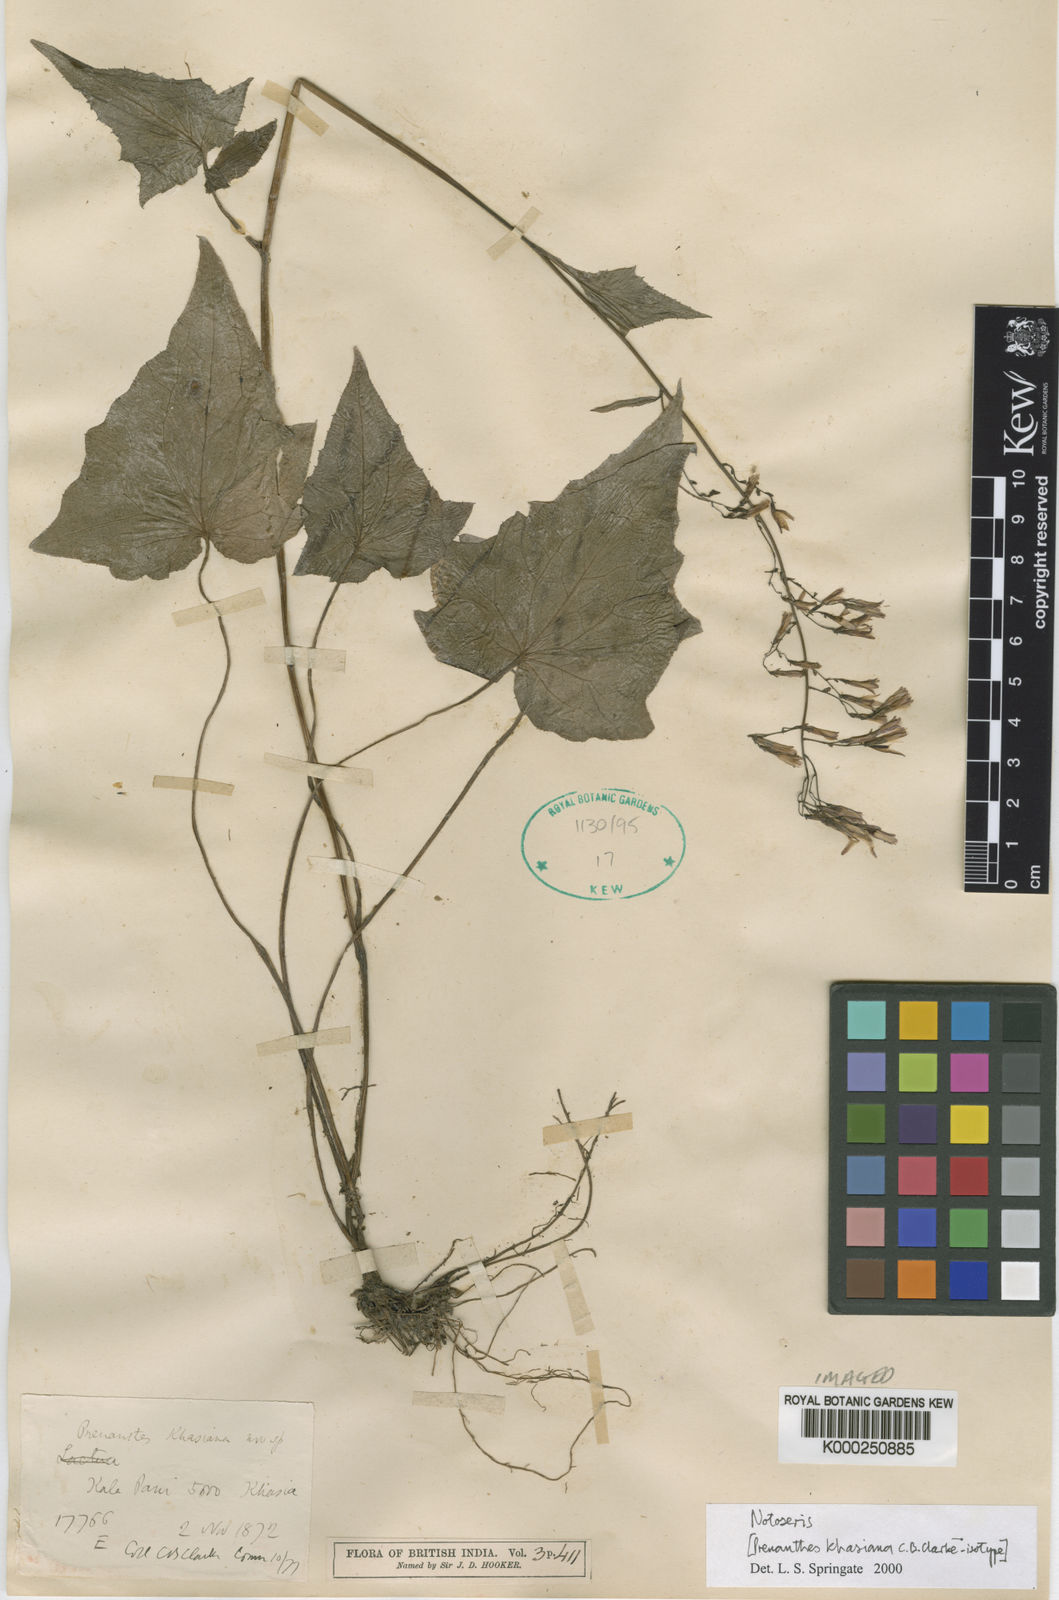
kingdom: Plantae
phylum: Tracheophyta
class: Magnoliopsida
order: Asterales
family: Asteraceae
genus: Notoseris
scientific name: Notoseris khasiana
